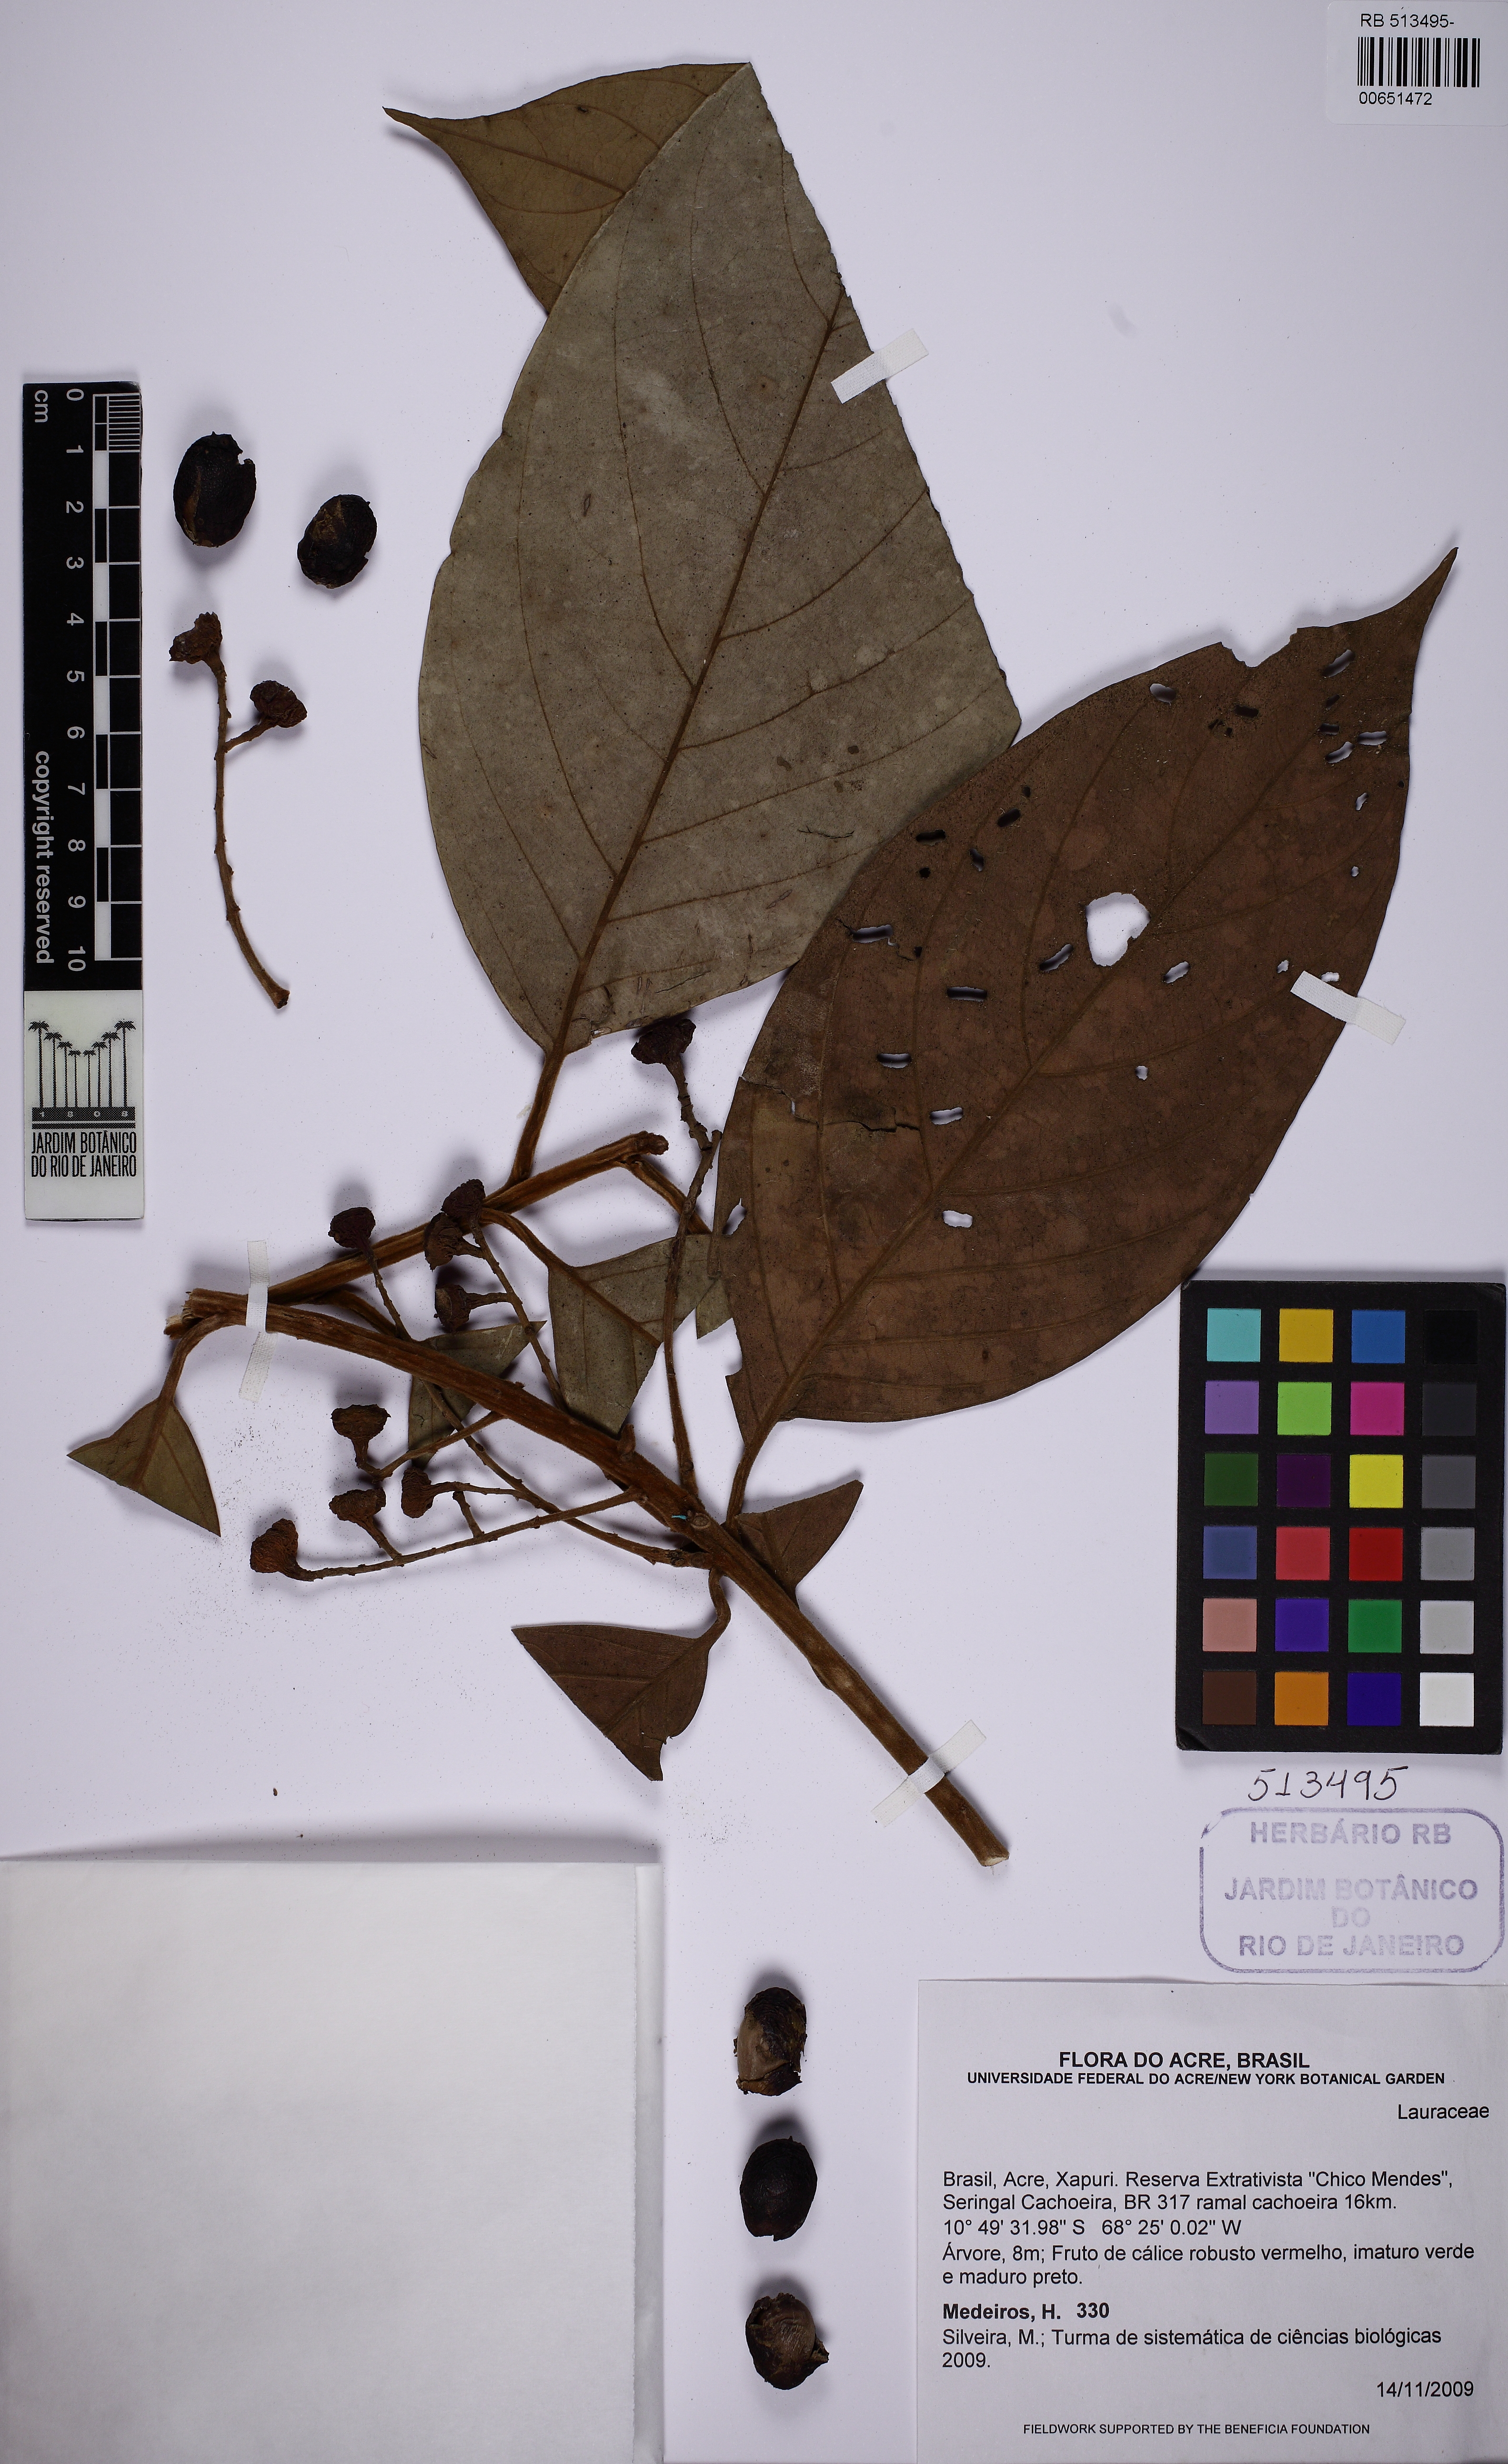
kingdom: Plantae
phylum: Tracheophyta
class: Magnoliopsida
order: Laurales
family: Lauraceae
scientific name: Lauraceae
